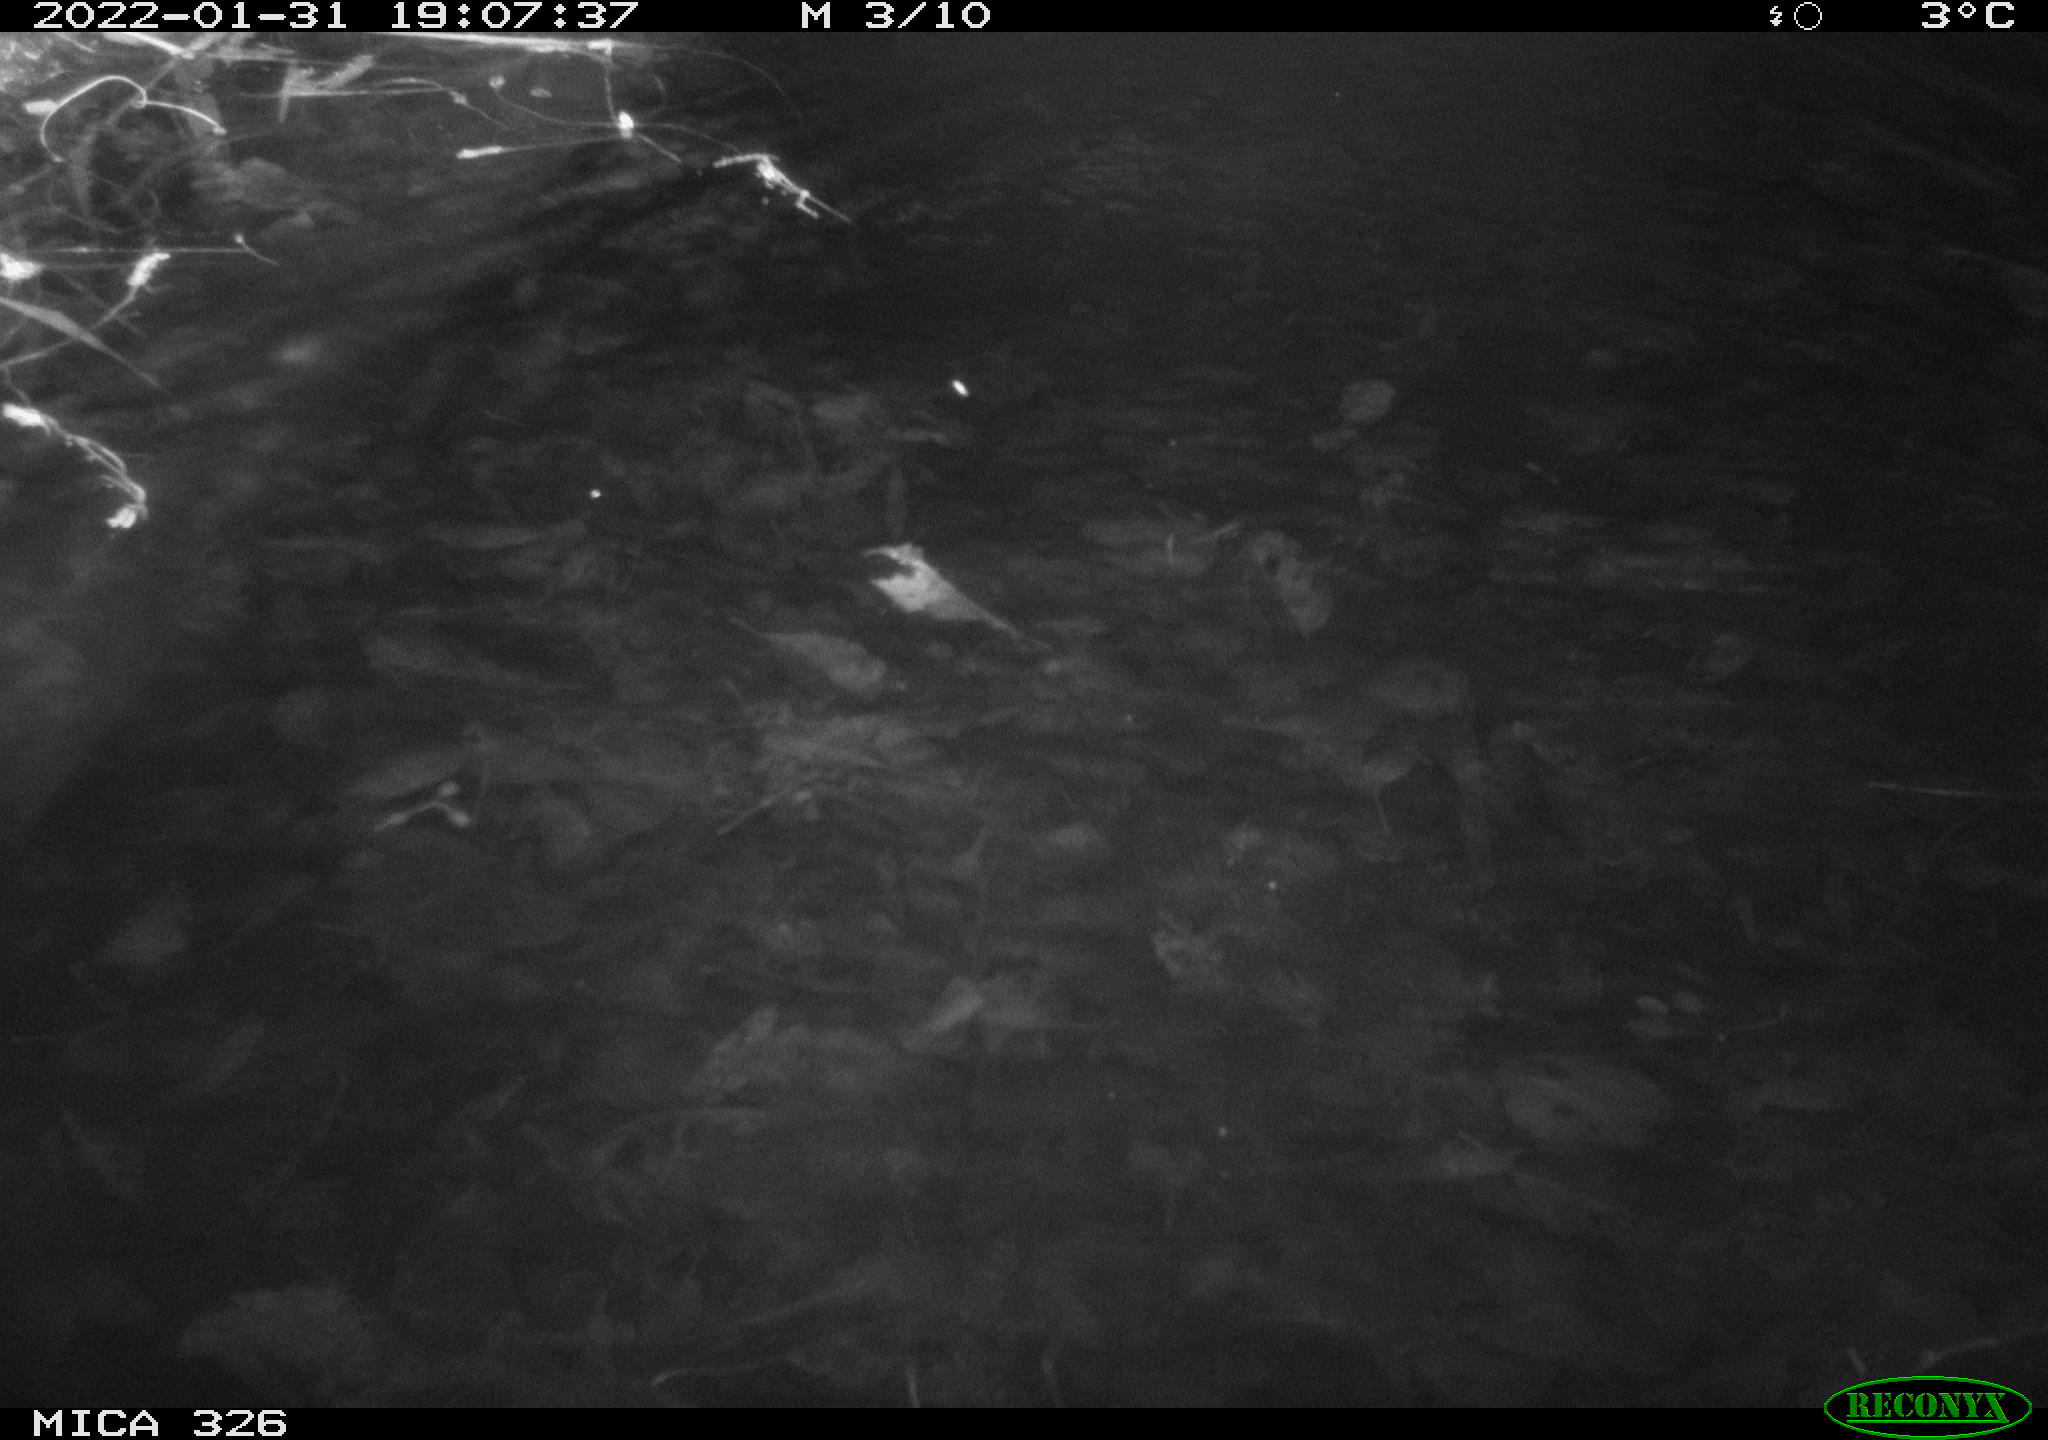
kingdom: Animalia
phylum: Chordata
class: Mammalia
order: Rodentia
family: Cricetidae
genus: Ondatra
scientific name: Ondatra zibethicus
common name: Muskrat
